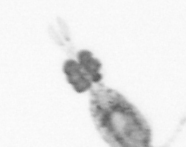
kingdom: Animalia
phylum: Arthropoda
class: Copepoda
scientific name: Copepoda
